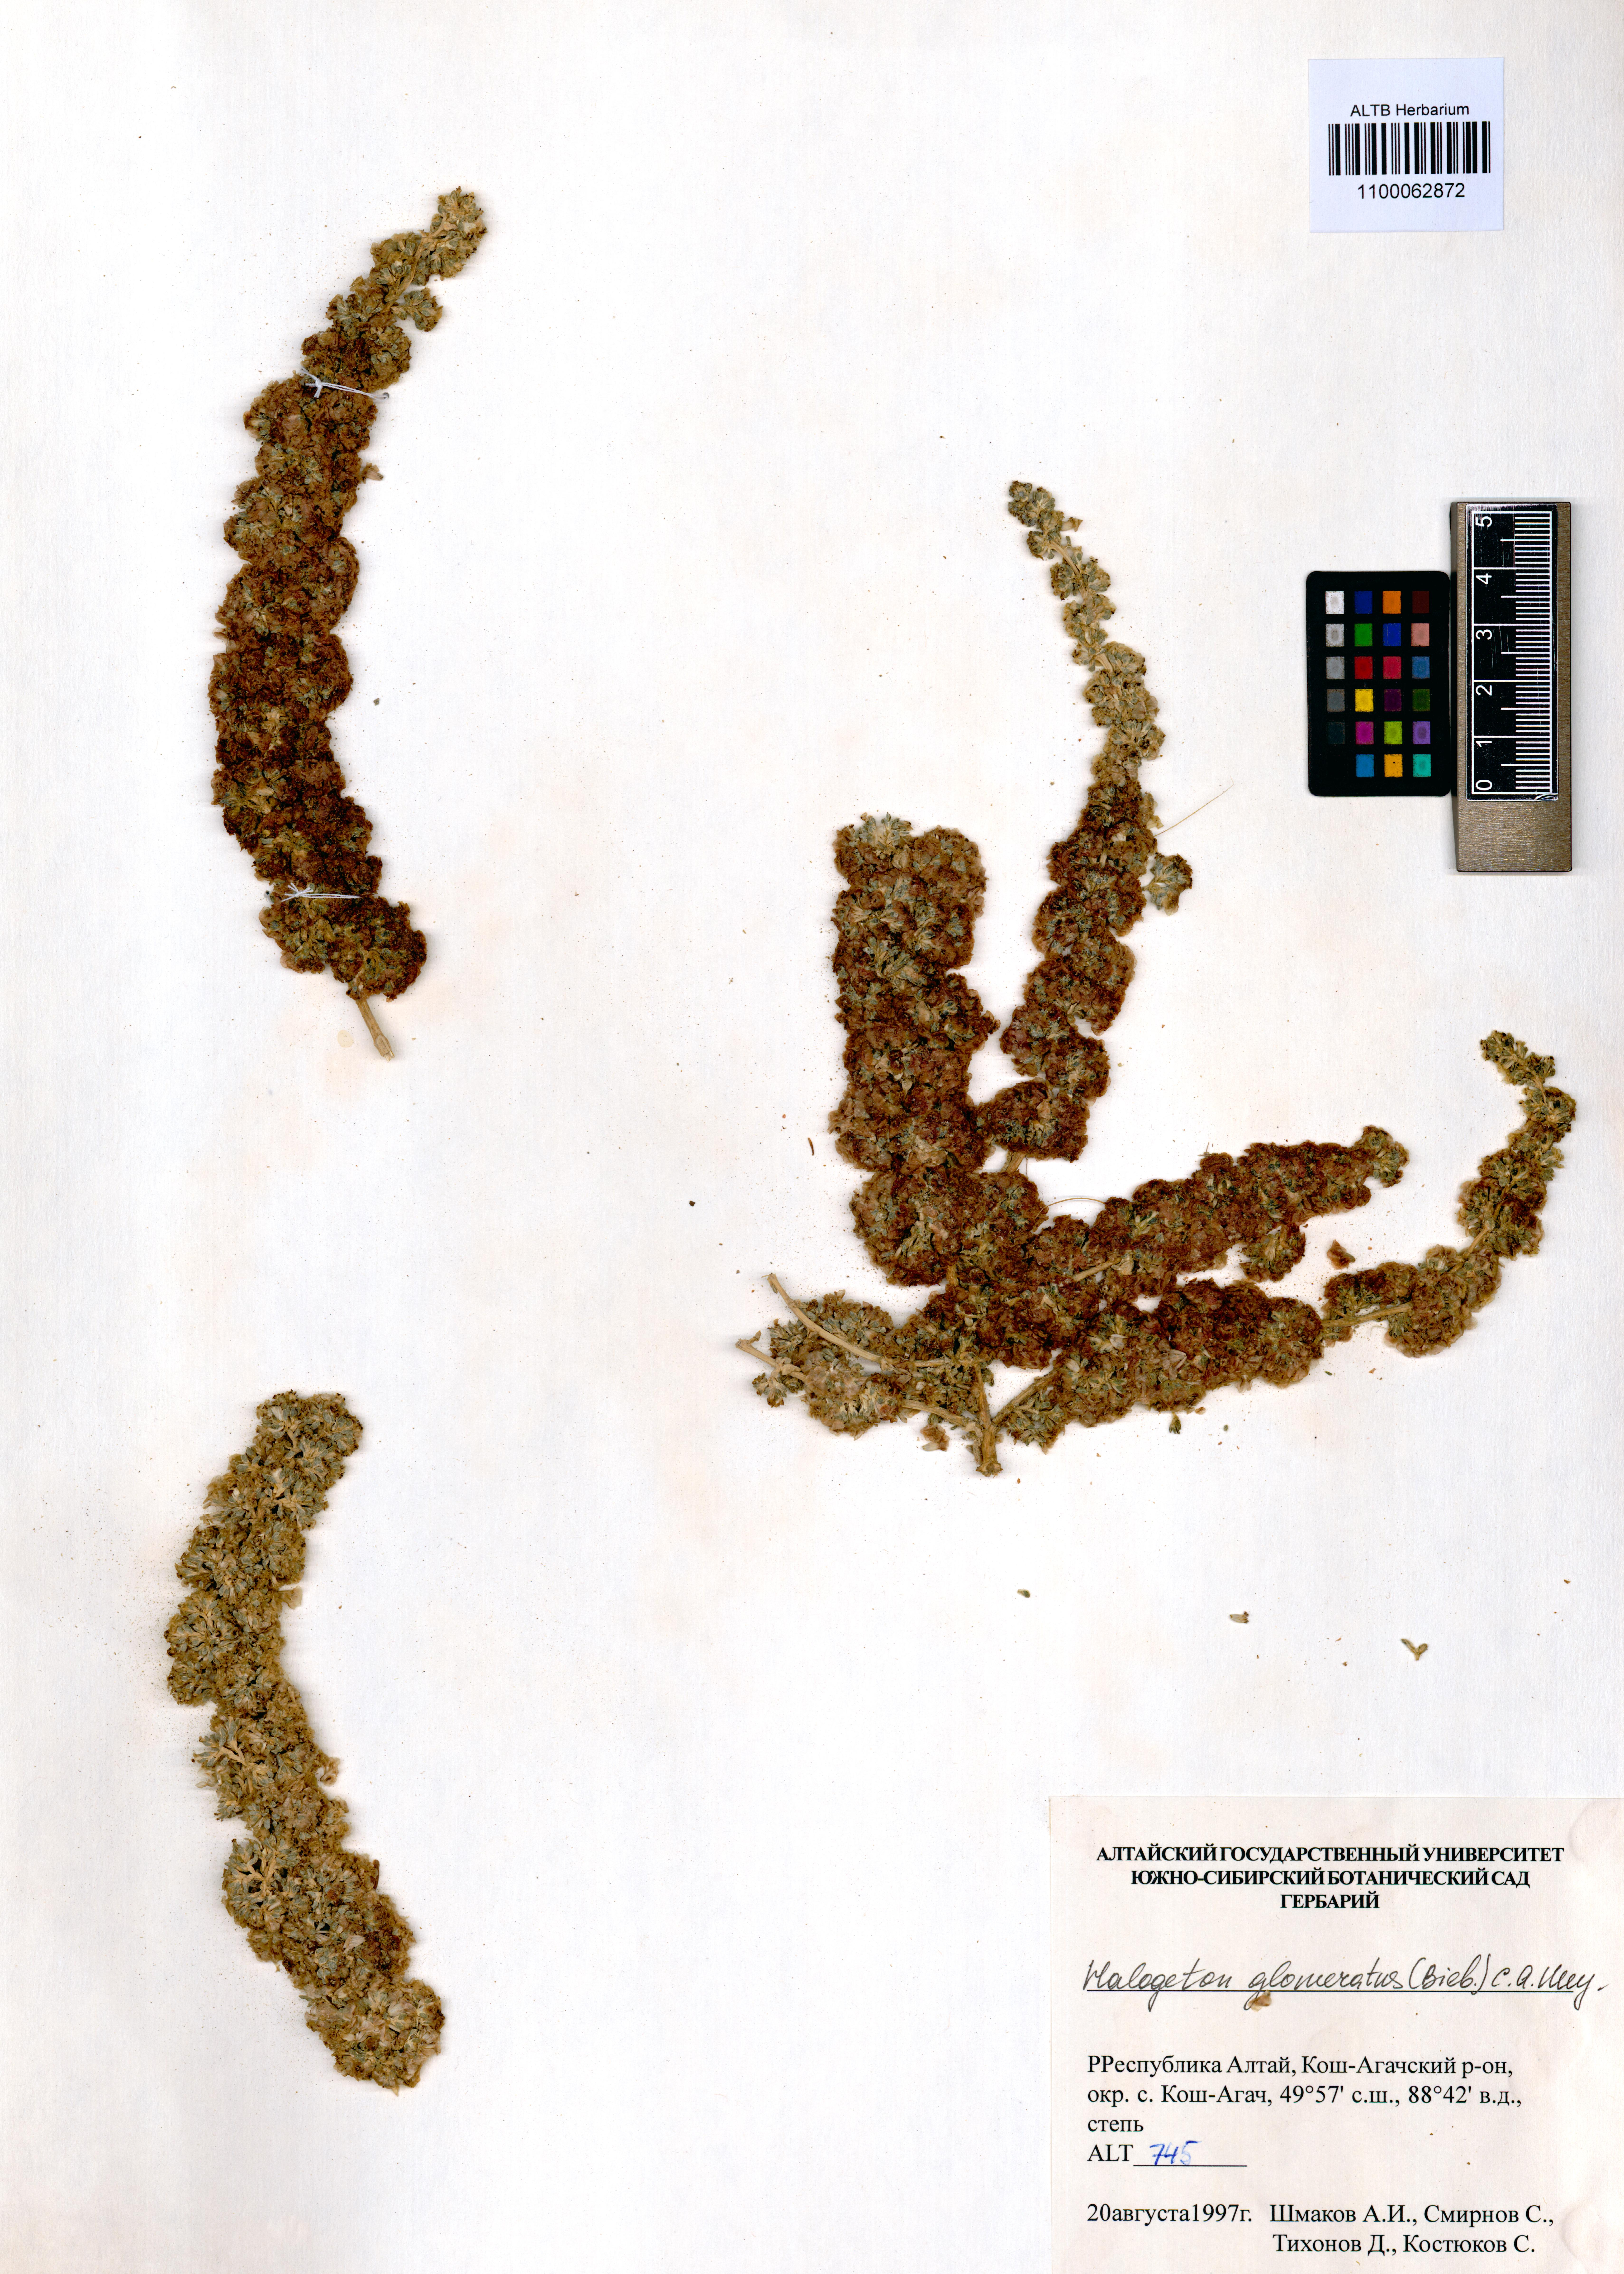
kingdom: Plantae
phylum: Tracheophyta
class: Magnoliopsida
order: Caryophyllales
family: Amaranthaceae
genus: Halogeton
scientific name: Halogeton glomeratus
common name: Saltlover
